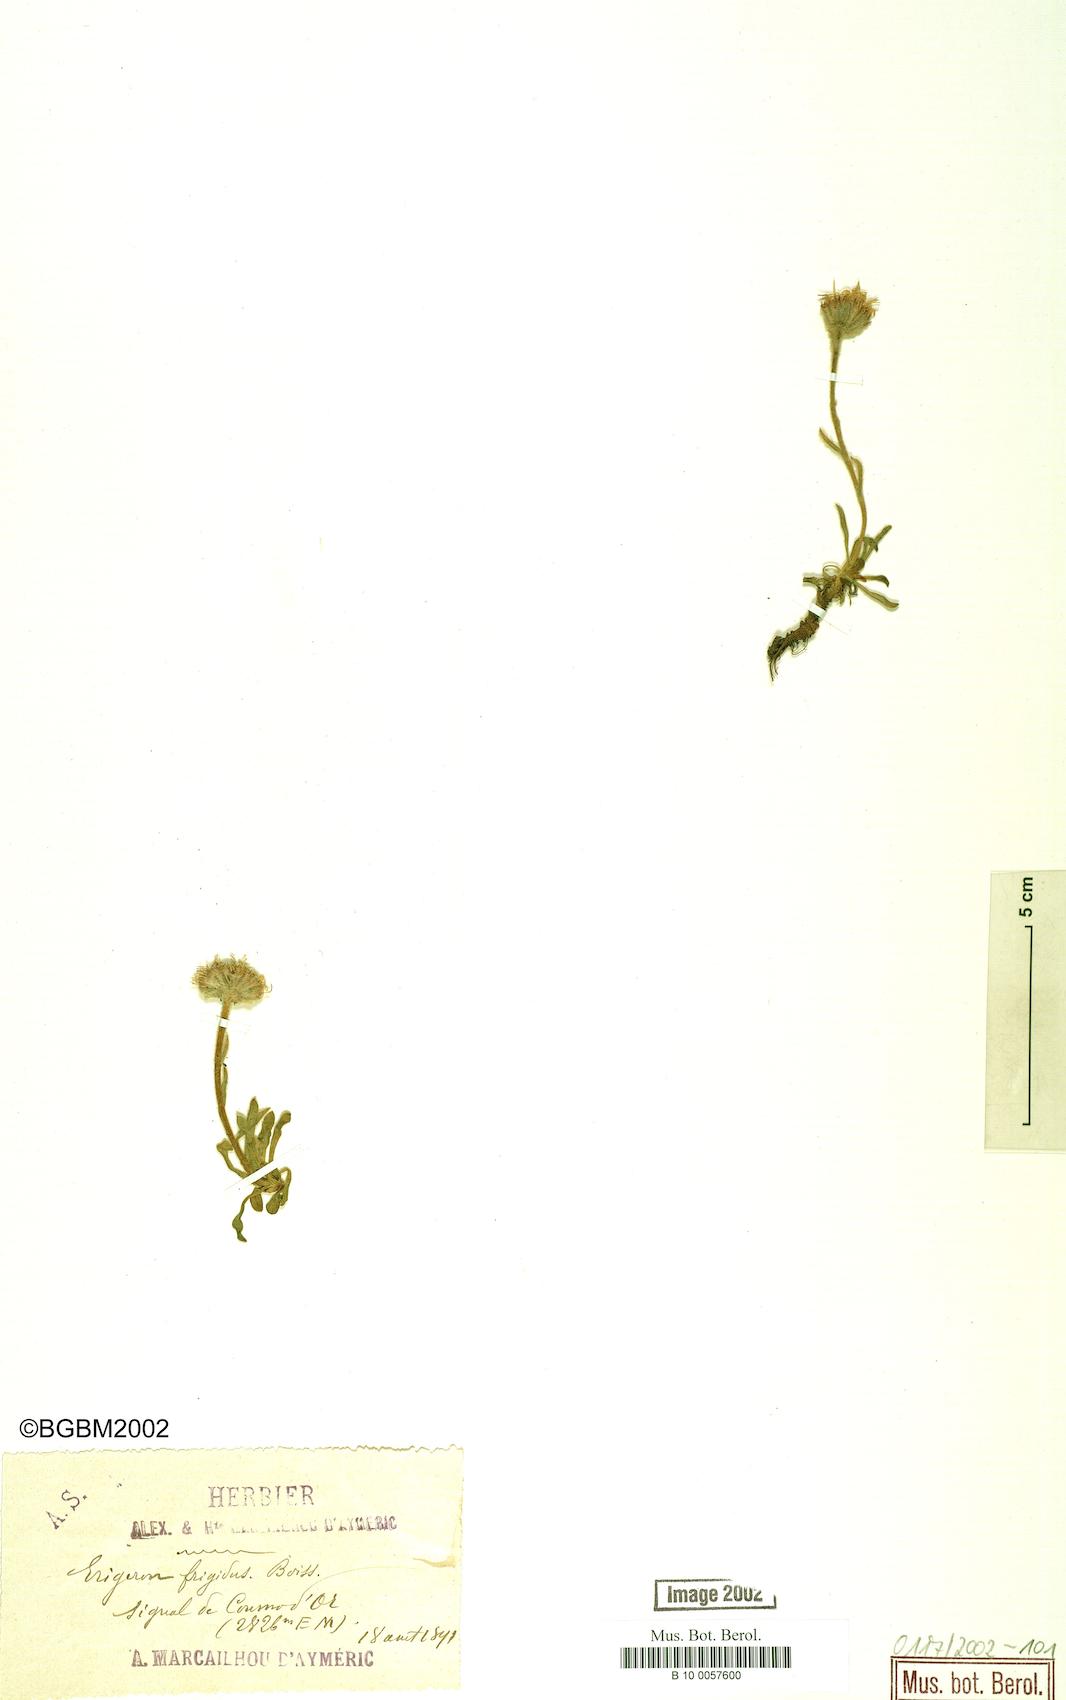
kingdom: Plantae
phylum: Tracheophyta
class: Magnoliopsida
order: Asterales
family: Asteraceae
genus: Erigeron
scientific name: Erigeron aragonensis
